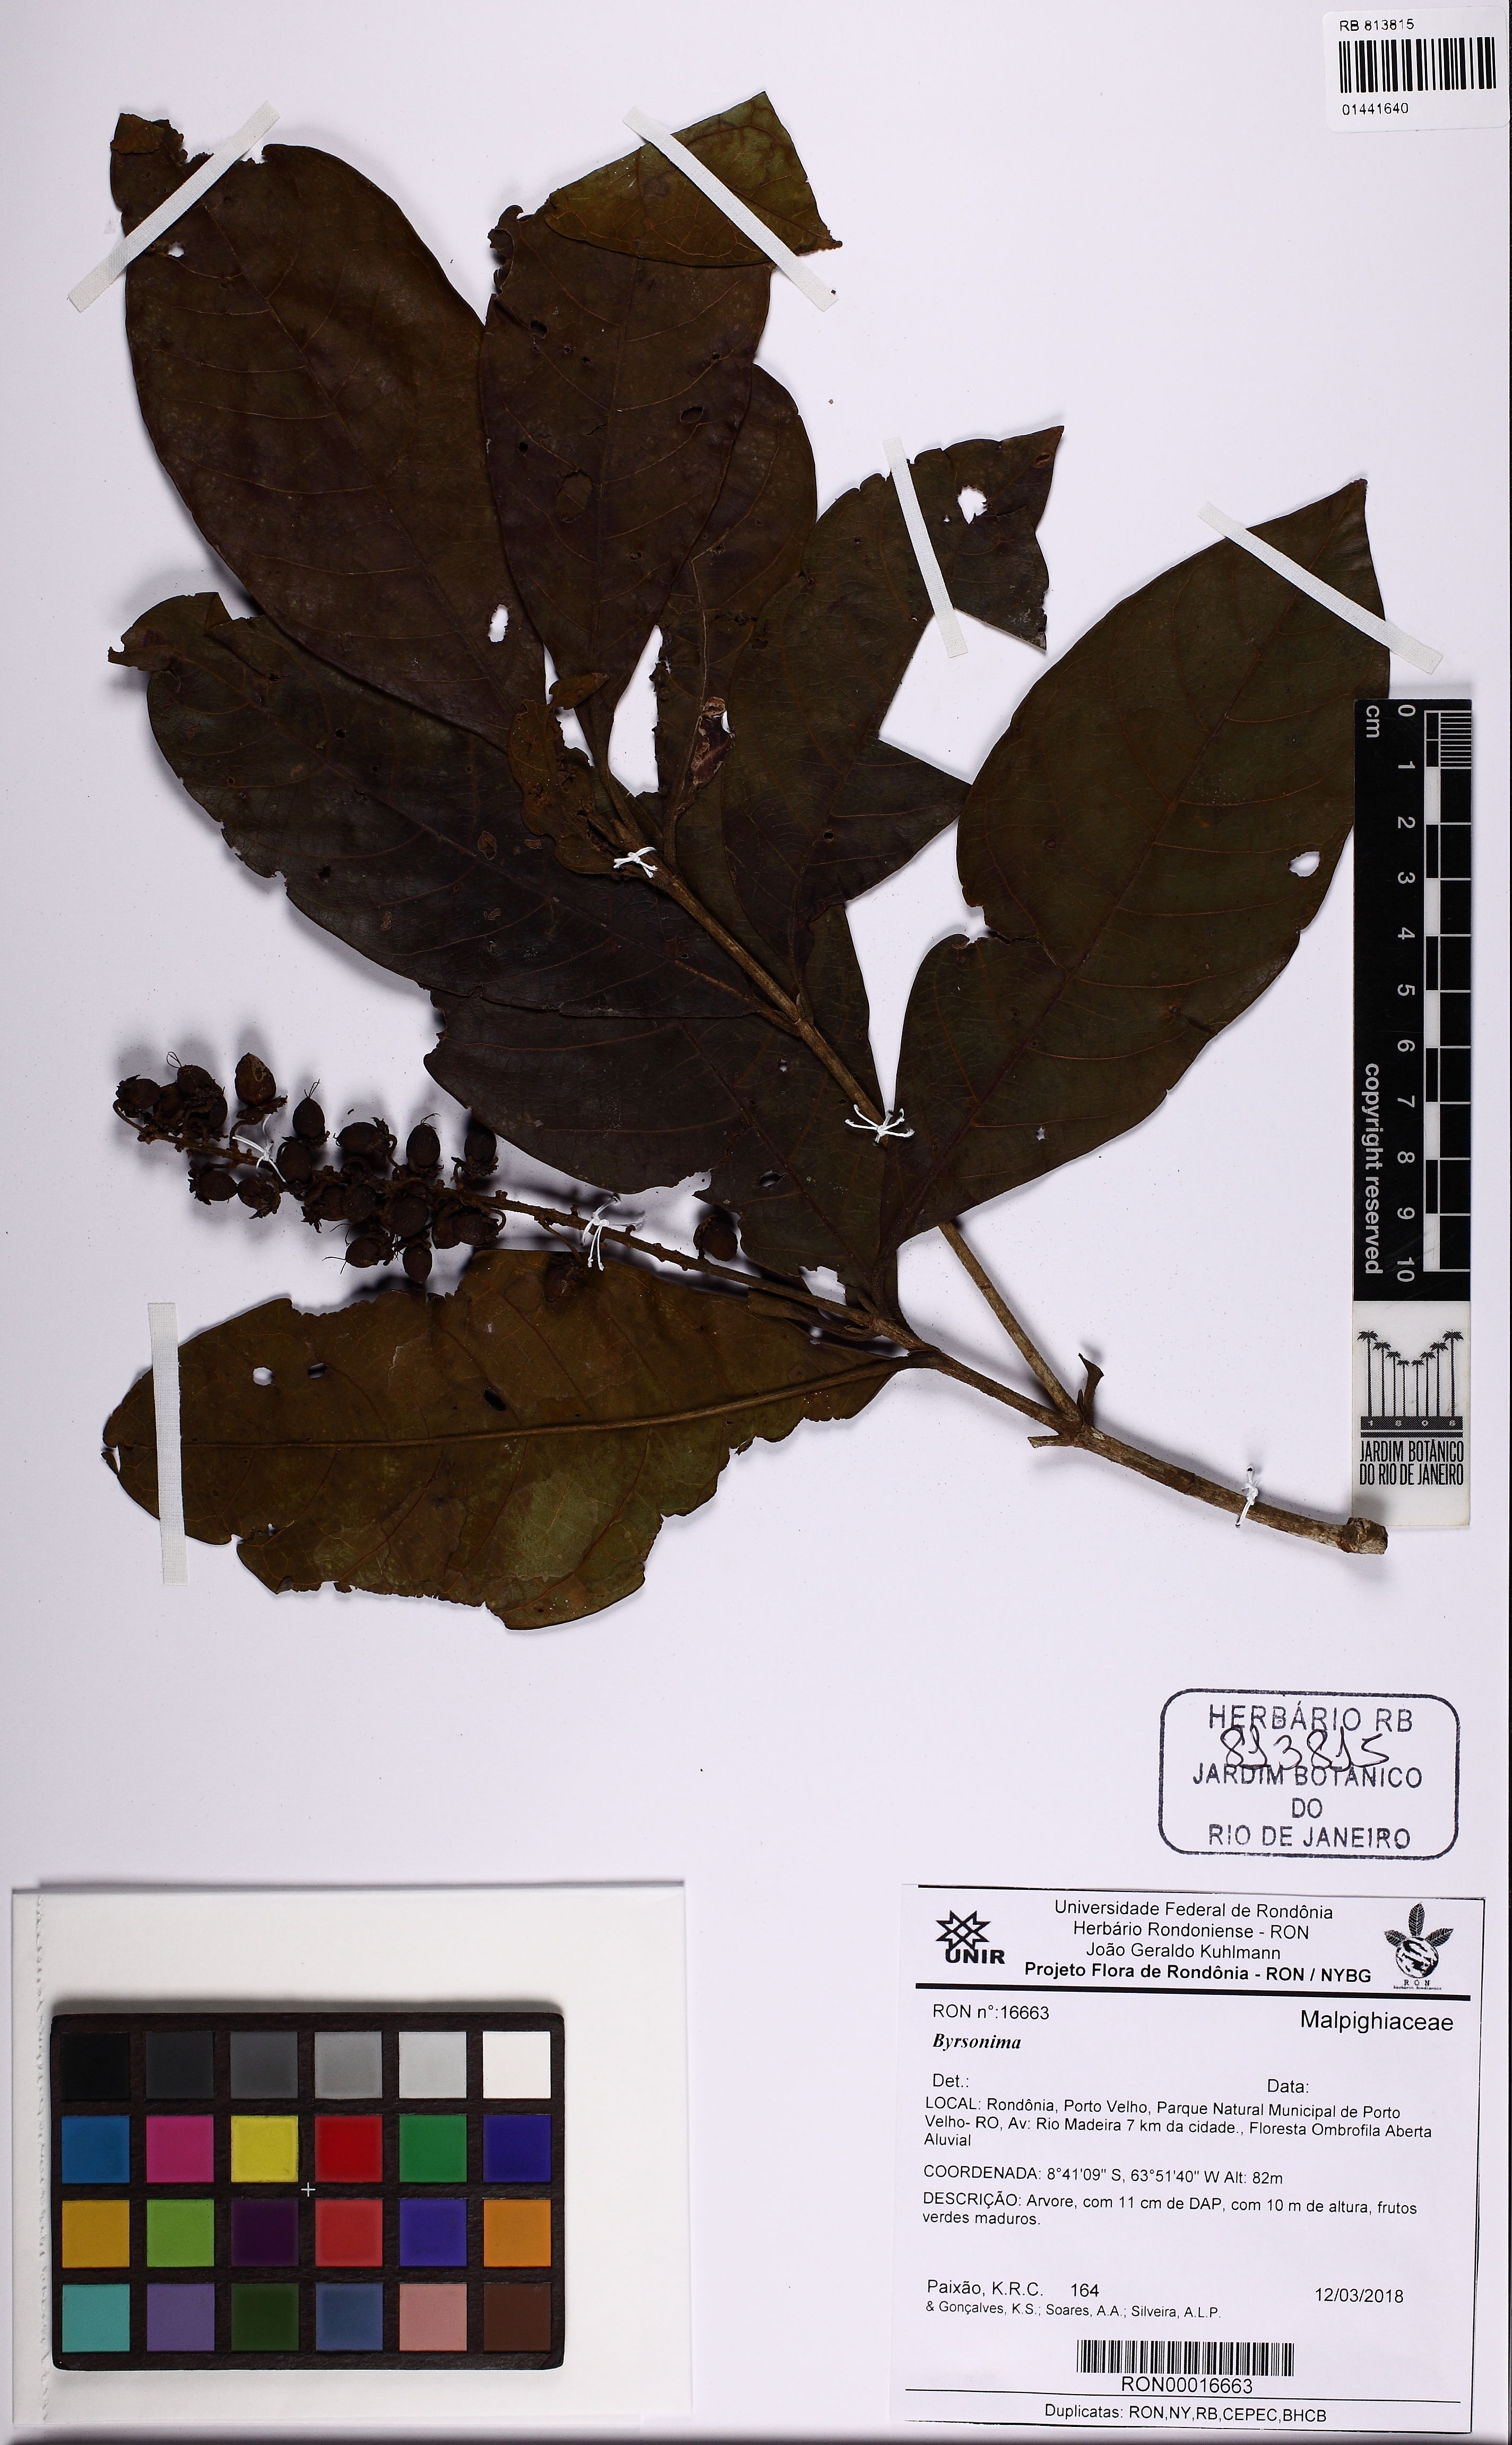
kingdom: Plantae
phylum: Tracheophyta
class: Magnoliopsida
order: Malpighiales
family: Malpighiaceae
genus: Byrsonima
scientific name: Byrsonima
